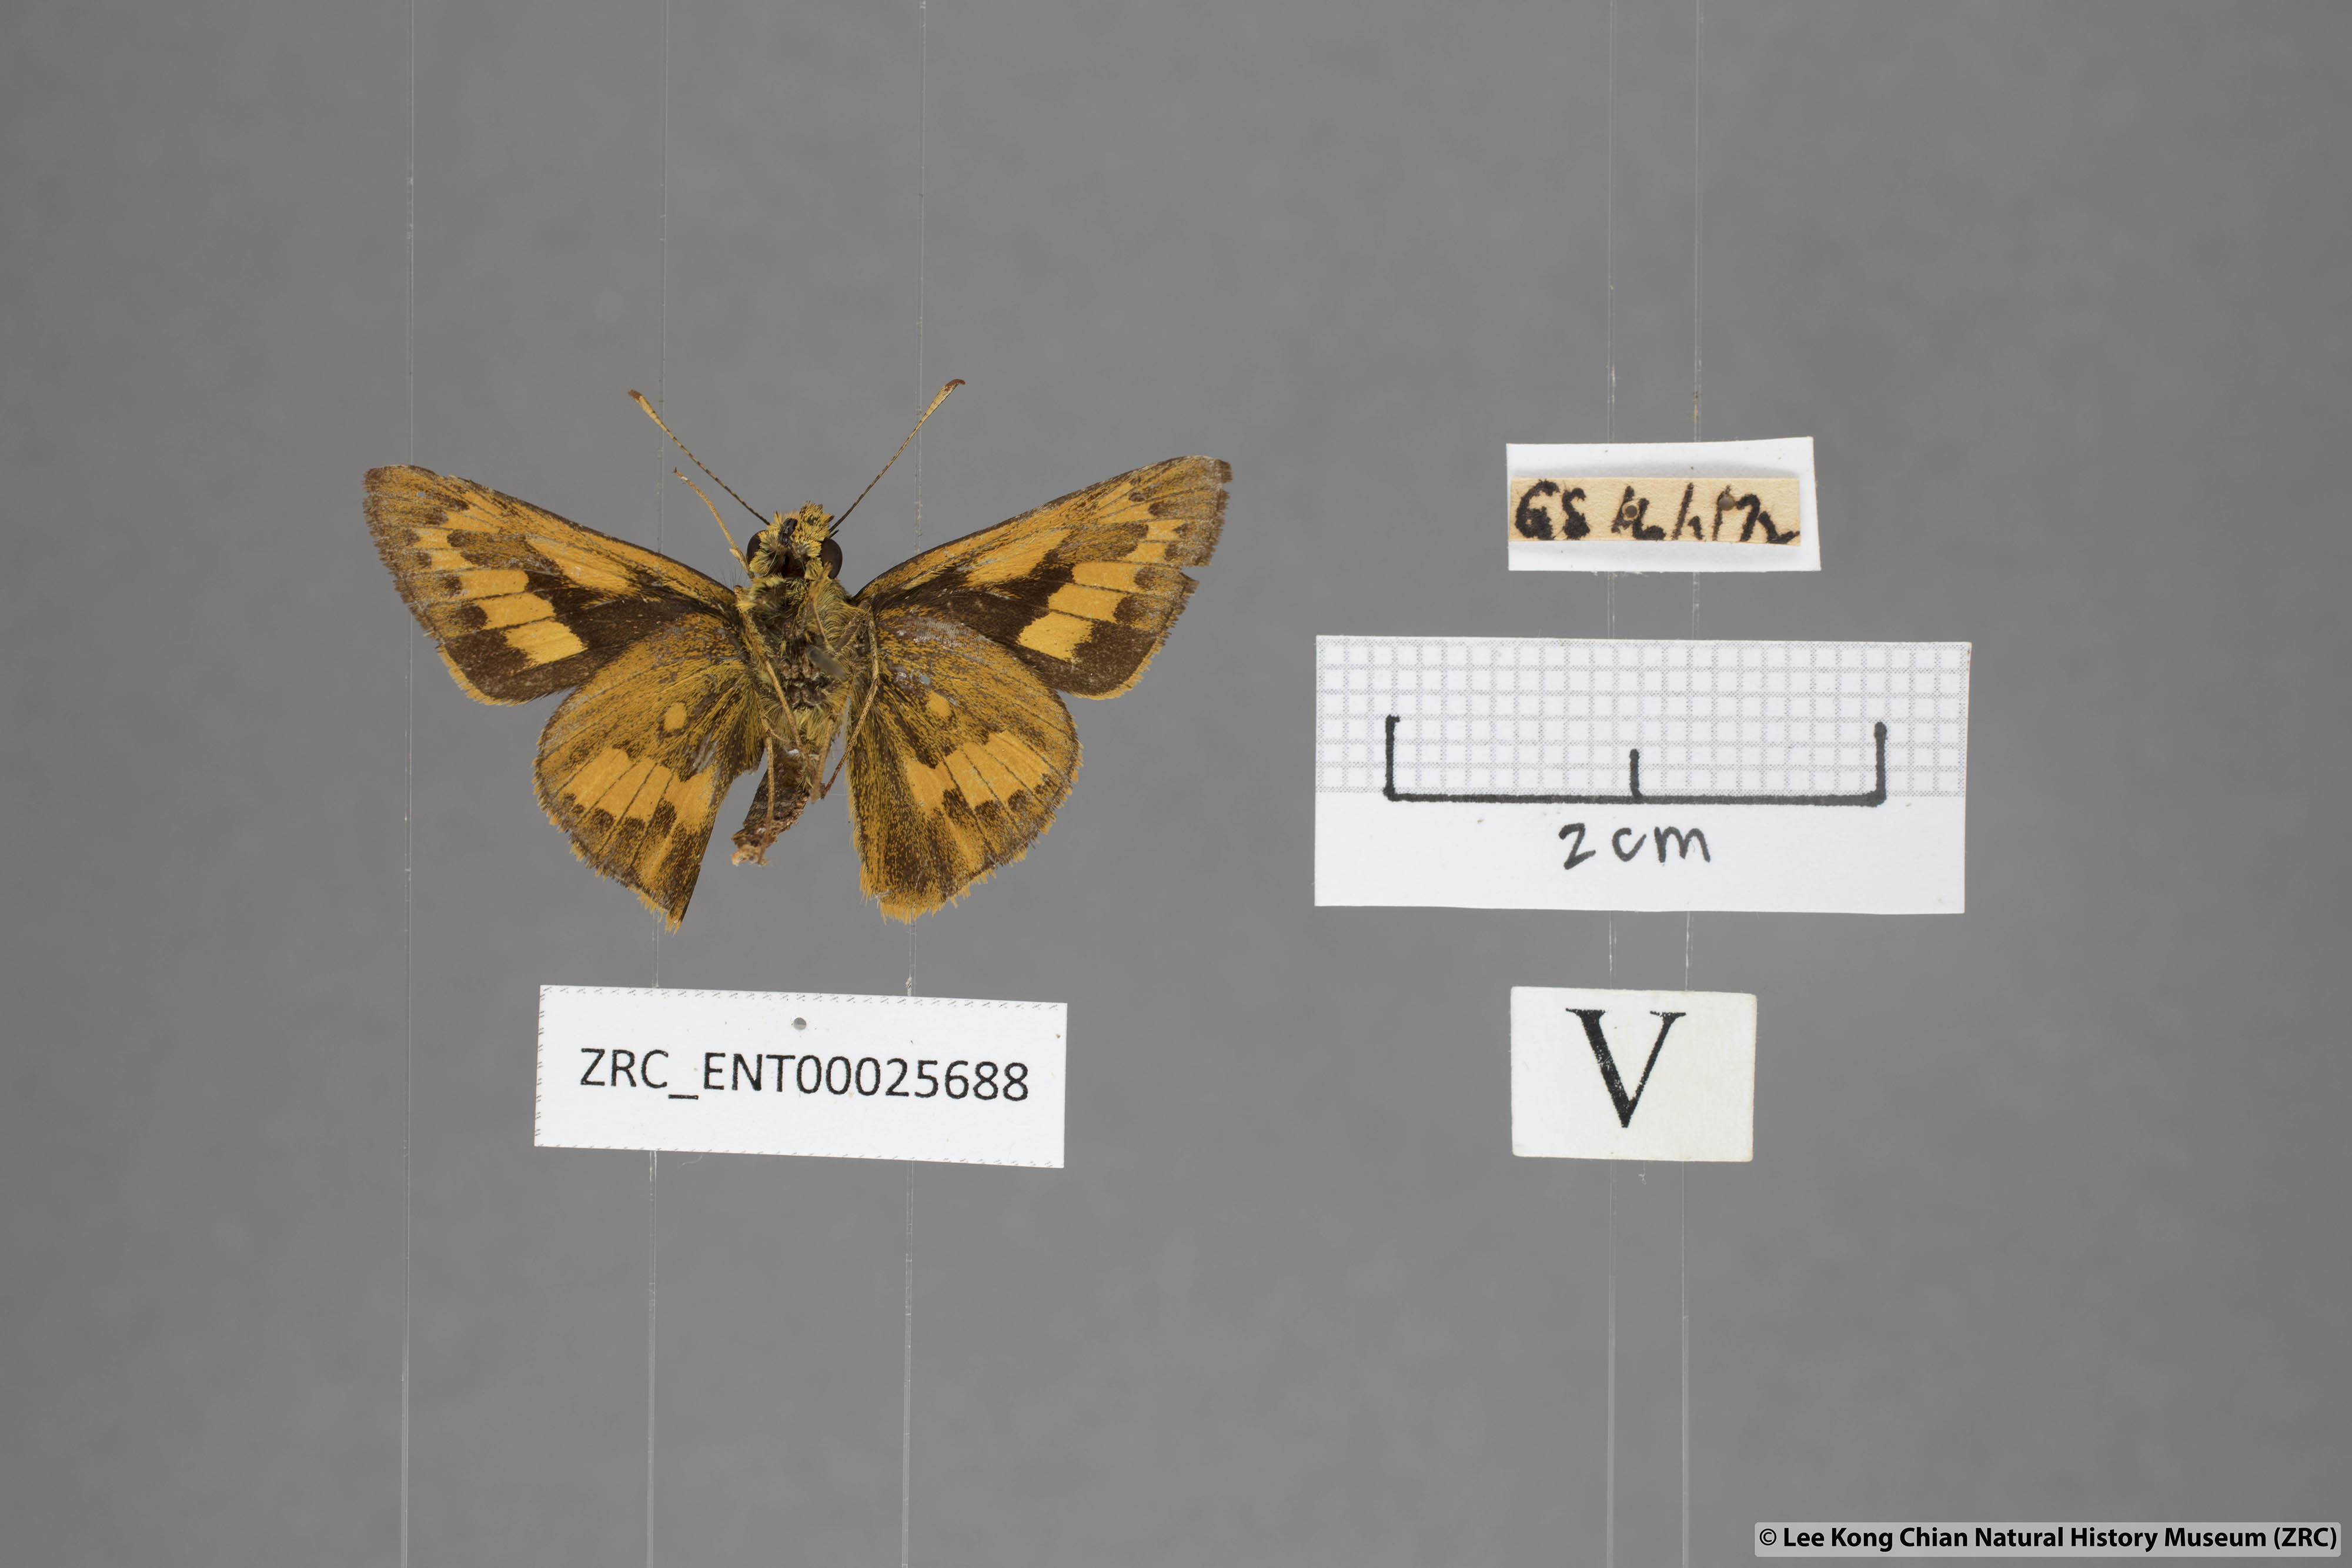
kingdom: Animalia
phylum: Arthropoda
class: Insecta
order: Lepidoptera
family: Hesperiidae
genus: Telicota
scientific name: Telicota ohara
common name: Dark palm dart
